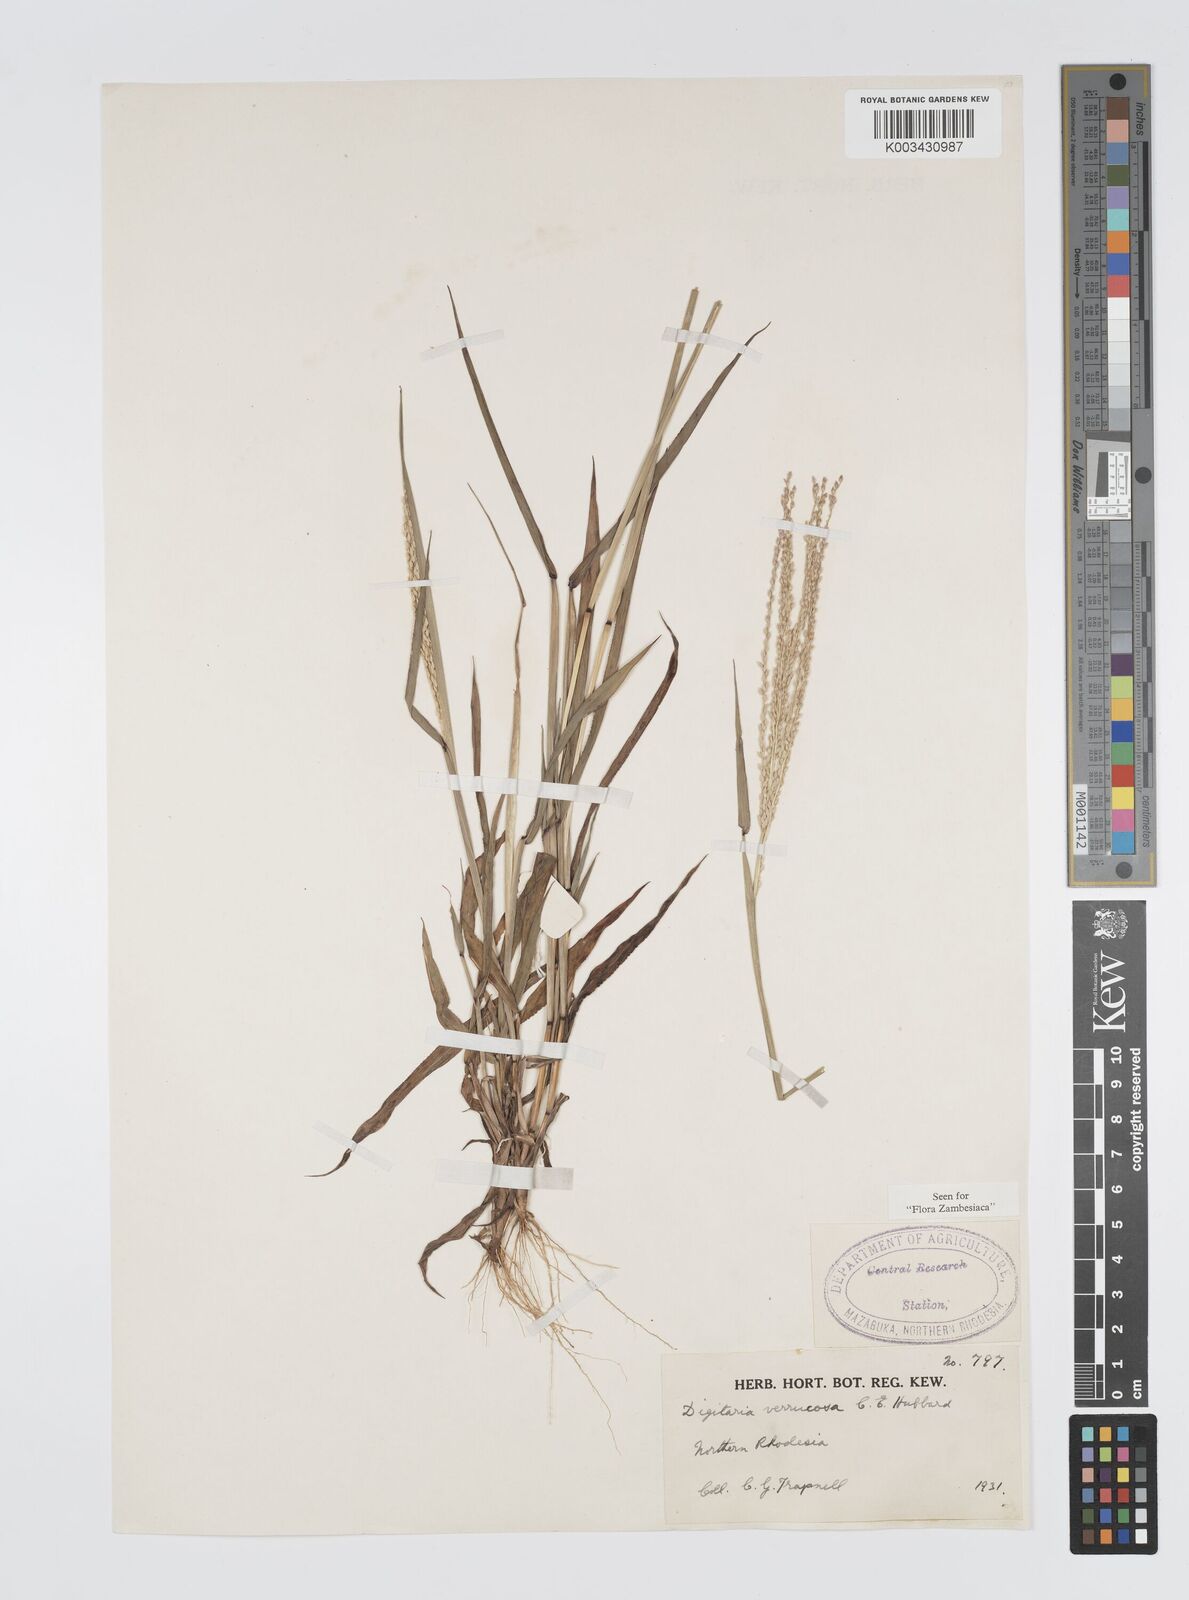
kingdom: Plantae
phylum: Tracheophyta
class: Liliopsida
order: Poales
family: Poaceae
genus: Digitaria
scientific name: Digitaria angolensis
